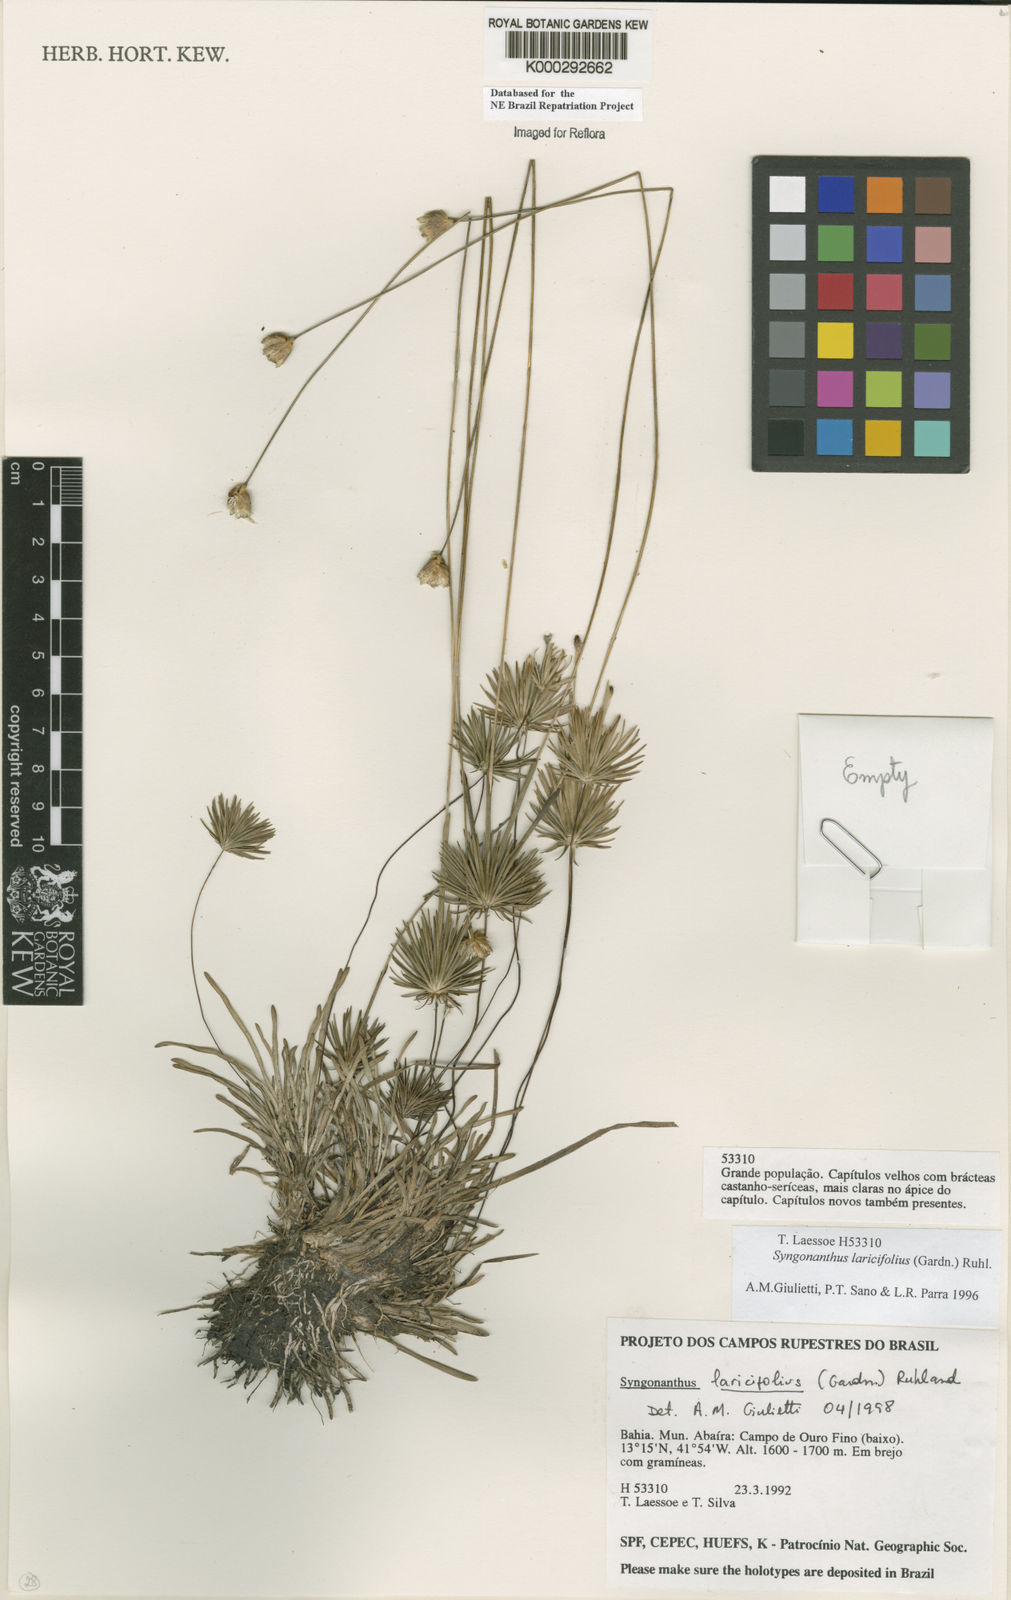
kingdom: Plantae
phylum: Tracheophyta
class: Liliopsida
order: Poales
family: Eriocaulaceae
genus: Syngonanthus
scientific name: Syngonanthus laricifolius
